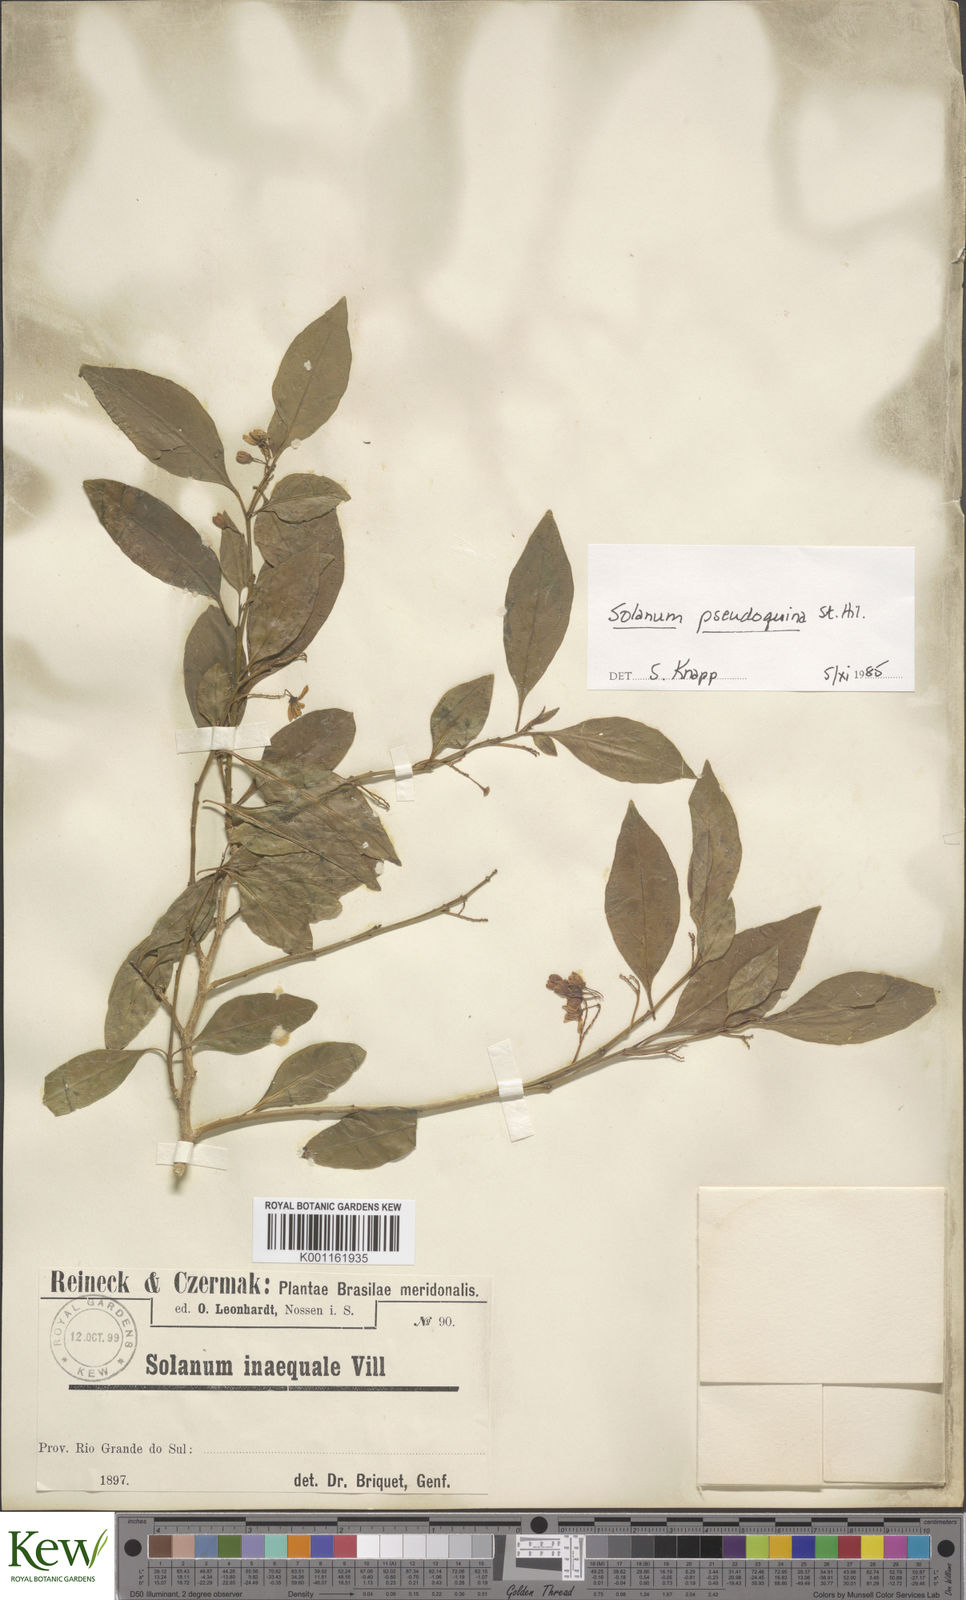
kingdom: Plantae
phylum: Tracheophyta
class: Magnoliopsida
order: Solanales
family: Solanaceae
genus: Solanum
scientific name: Solanum pseudoquina
